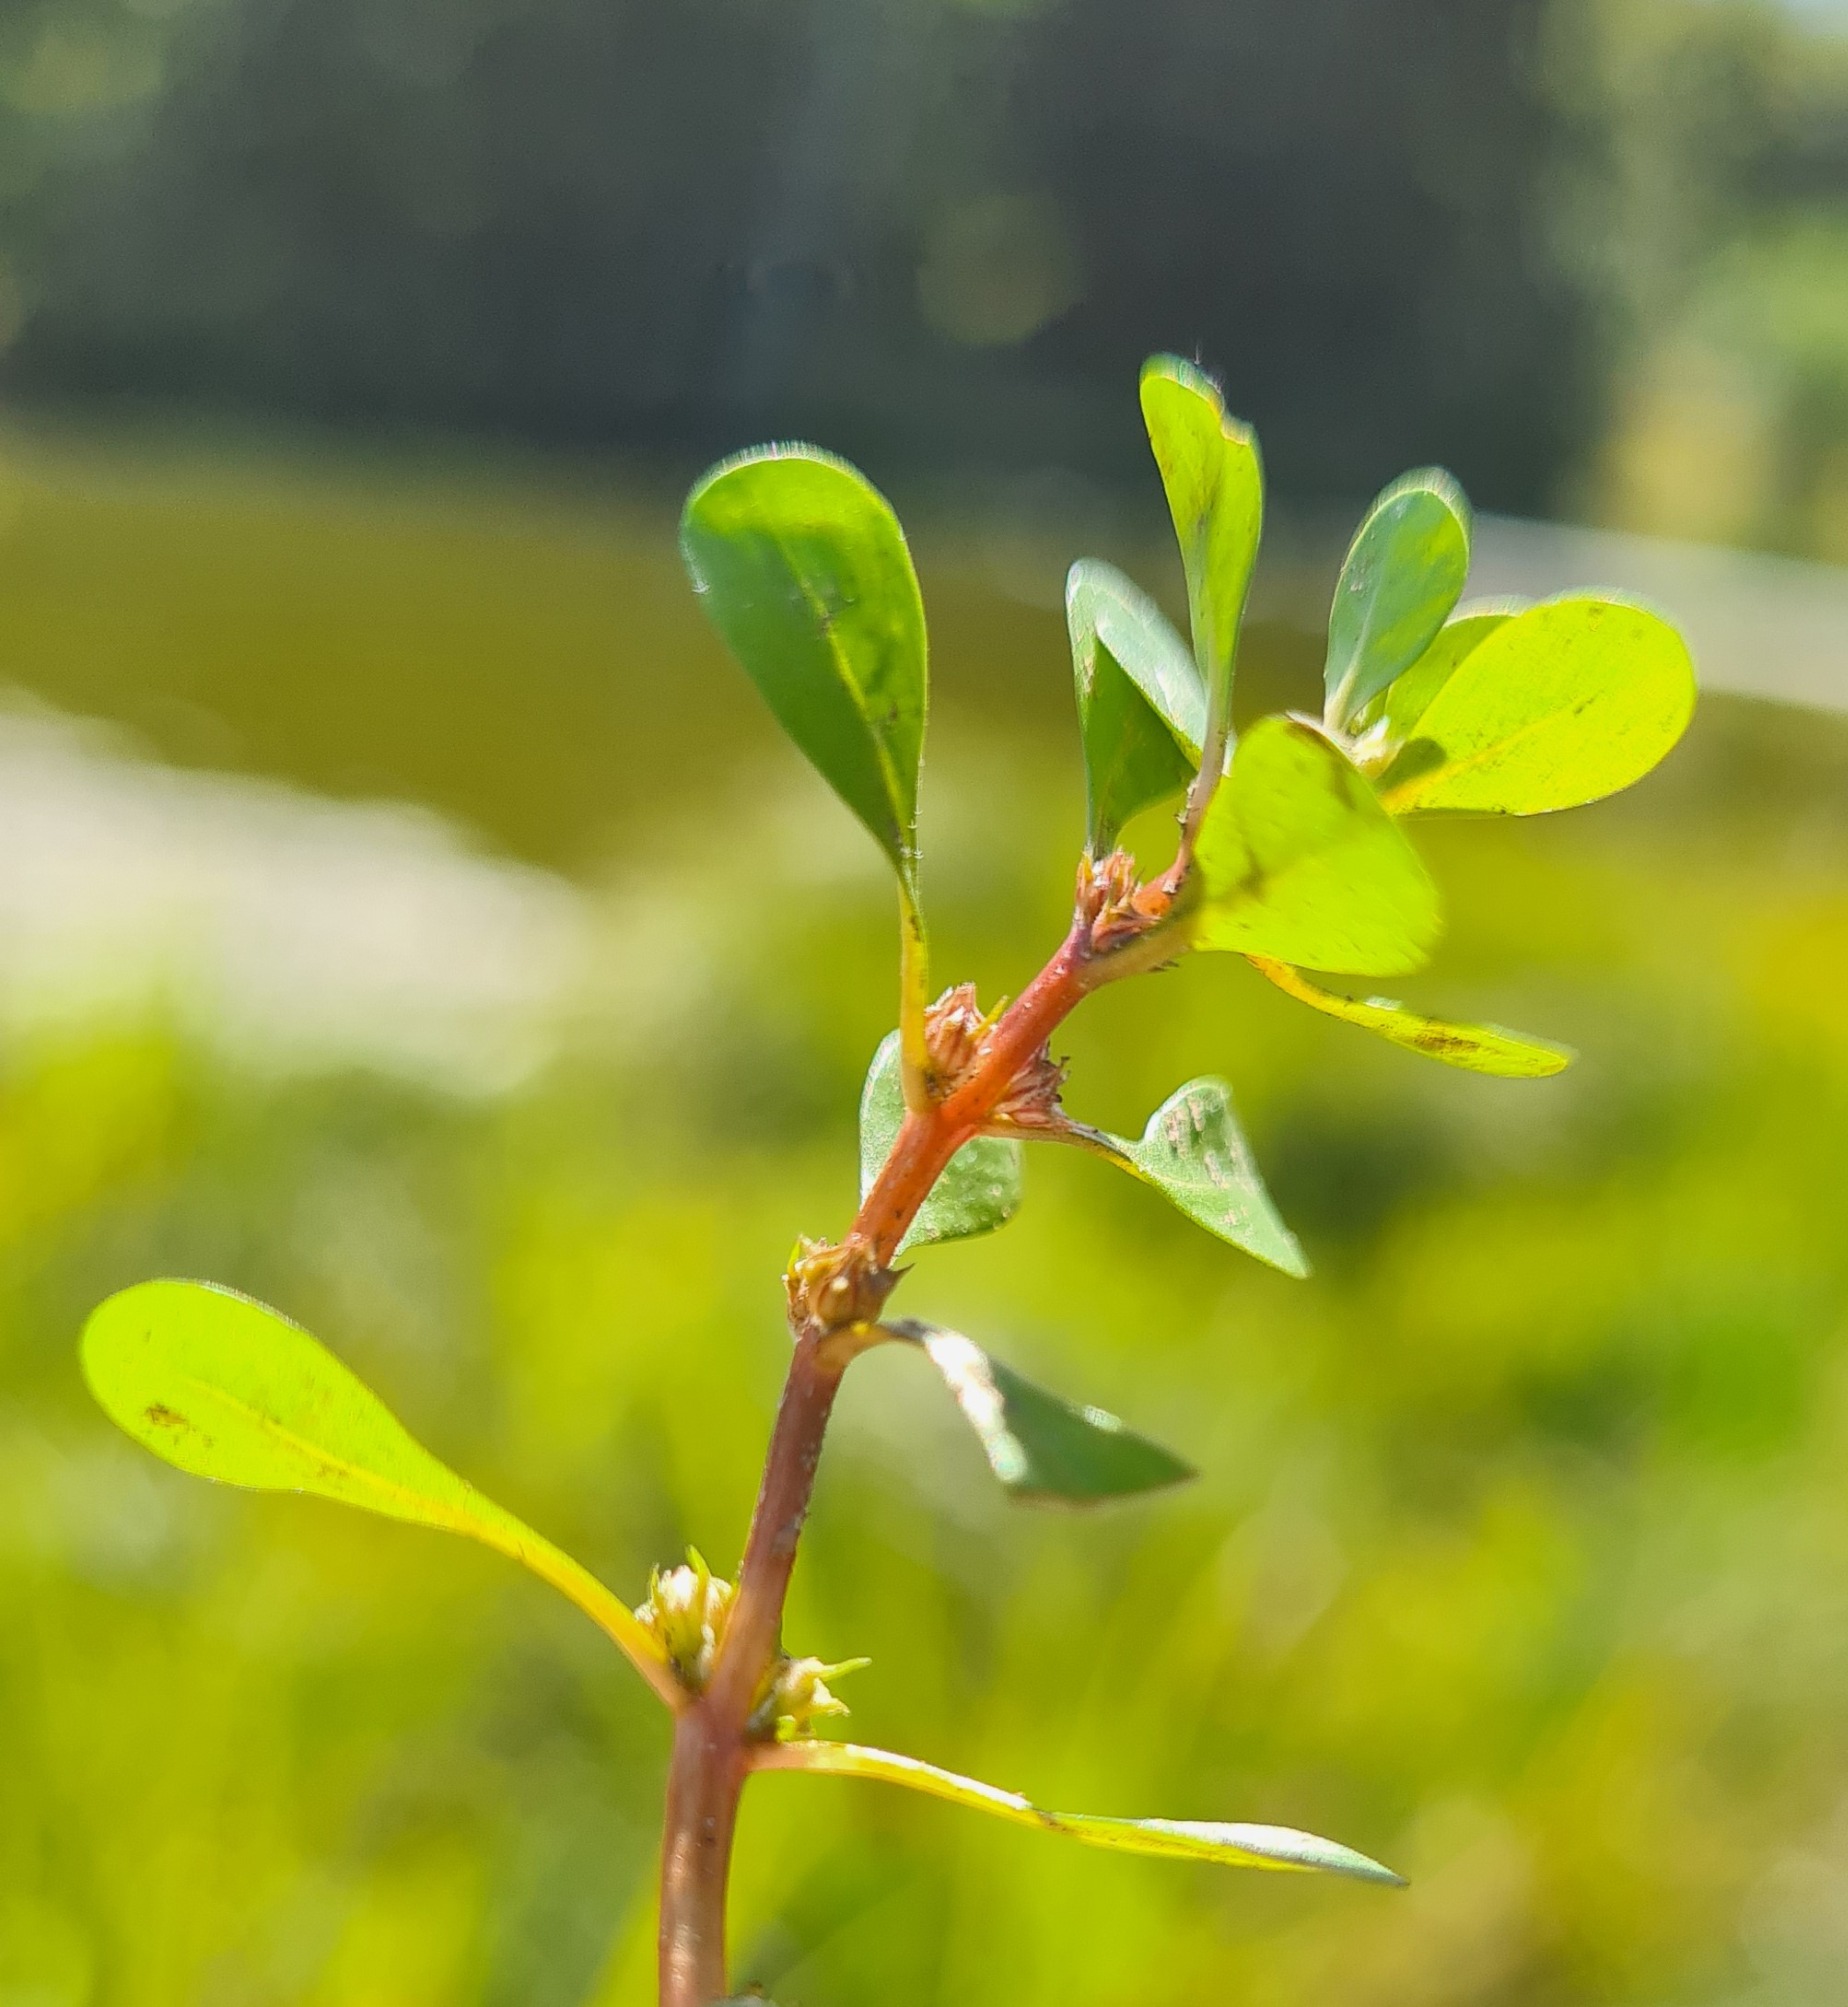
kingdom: Plantae
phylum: Tracheophyta
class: Magnoliopsida
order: Myrtales
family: Lythraceae
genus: Lythrum
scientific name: Lythrum portula
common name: Vandportulak
